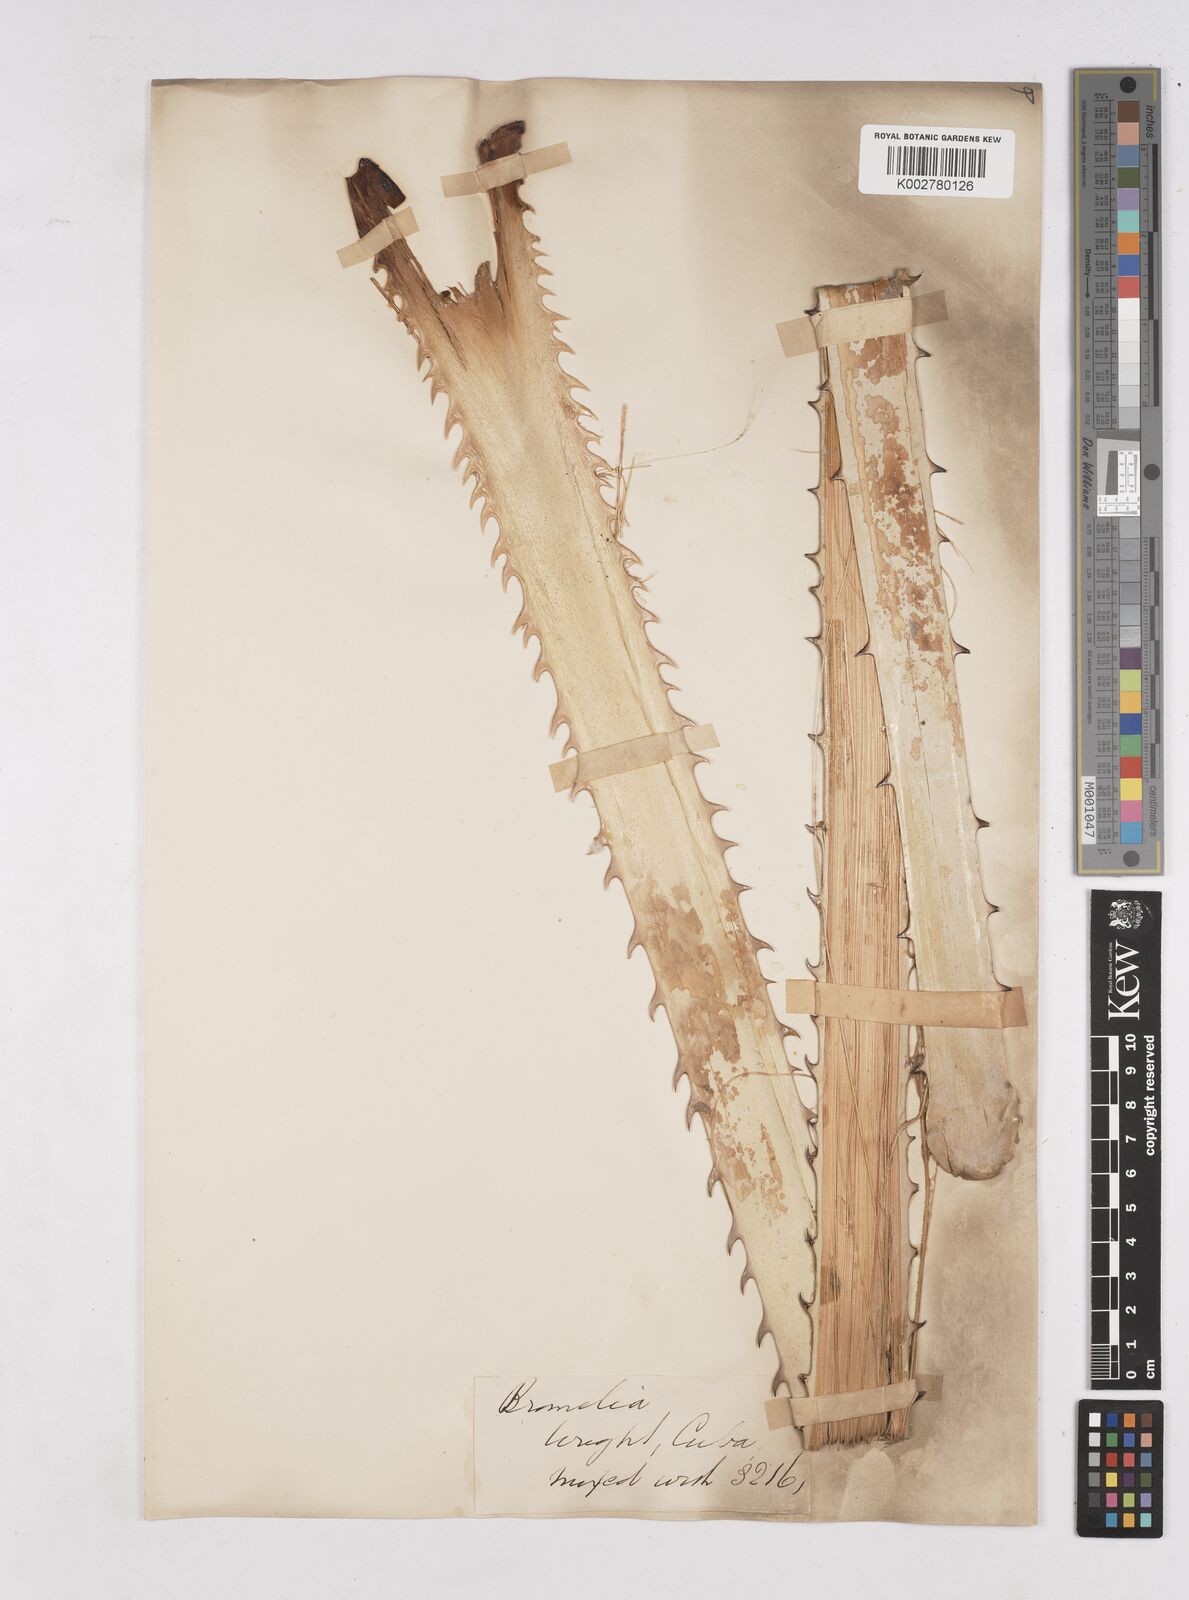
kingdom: Plantae
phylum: Tracheophyta
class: Liliopsida
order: Poales
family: Bromeliaceae
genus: Bromelia
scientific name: Bromelia
